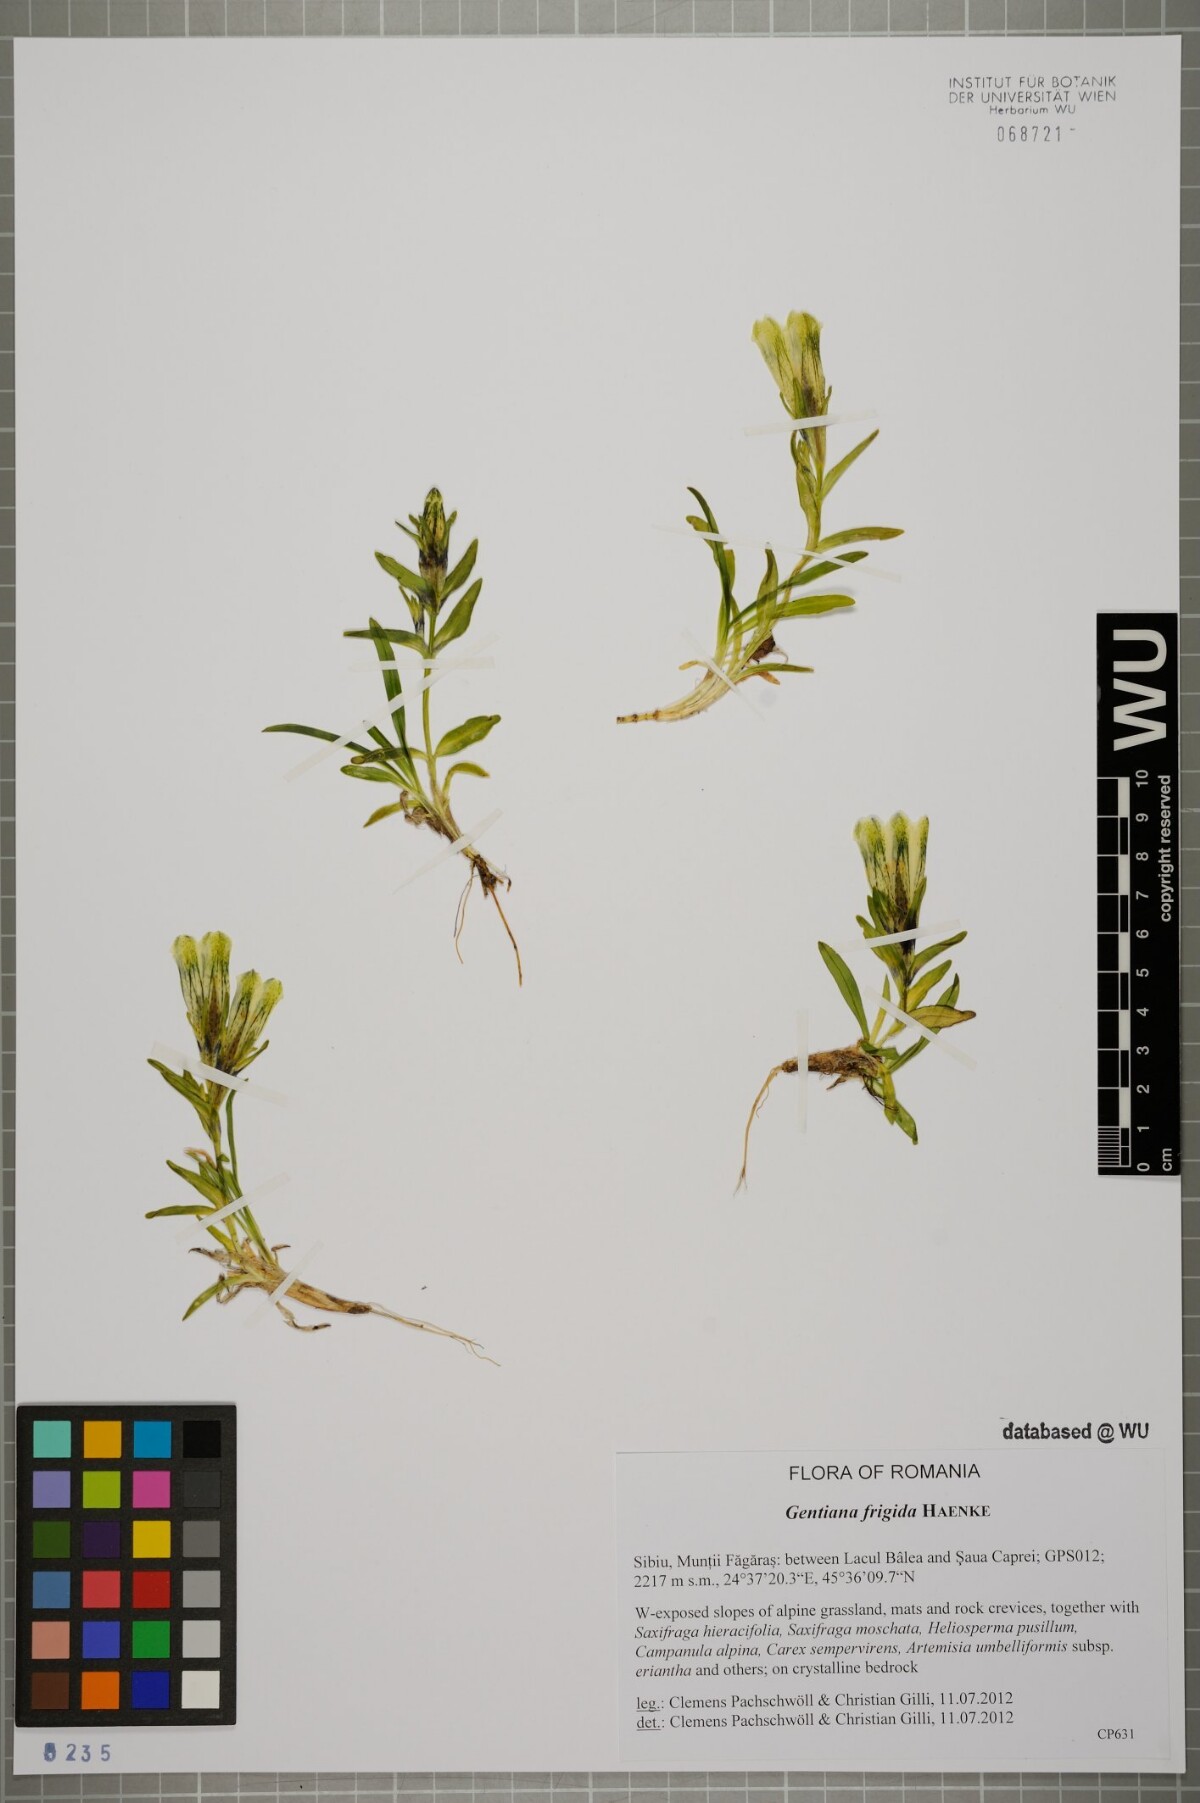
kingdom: Plantae
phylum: Tracheophyta
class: Magnoliopsida
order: Gentianales
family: Gentianaceae
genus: Gentiana
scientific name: Gentiana frigida
